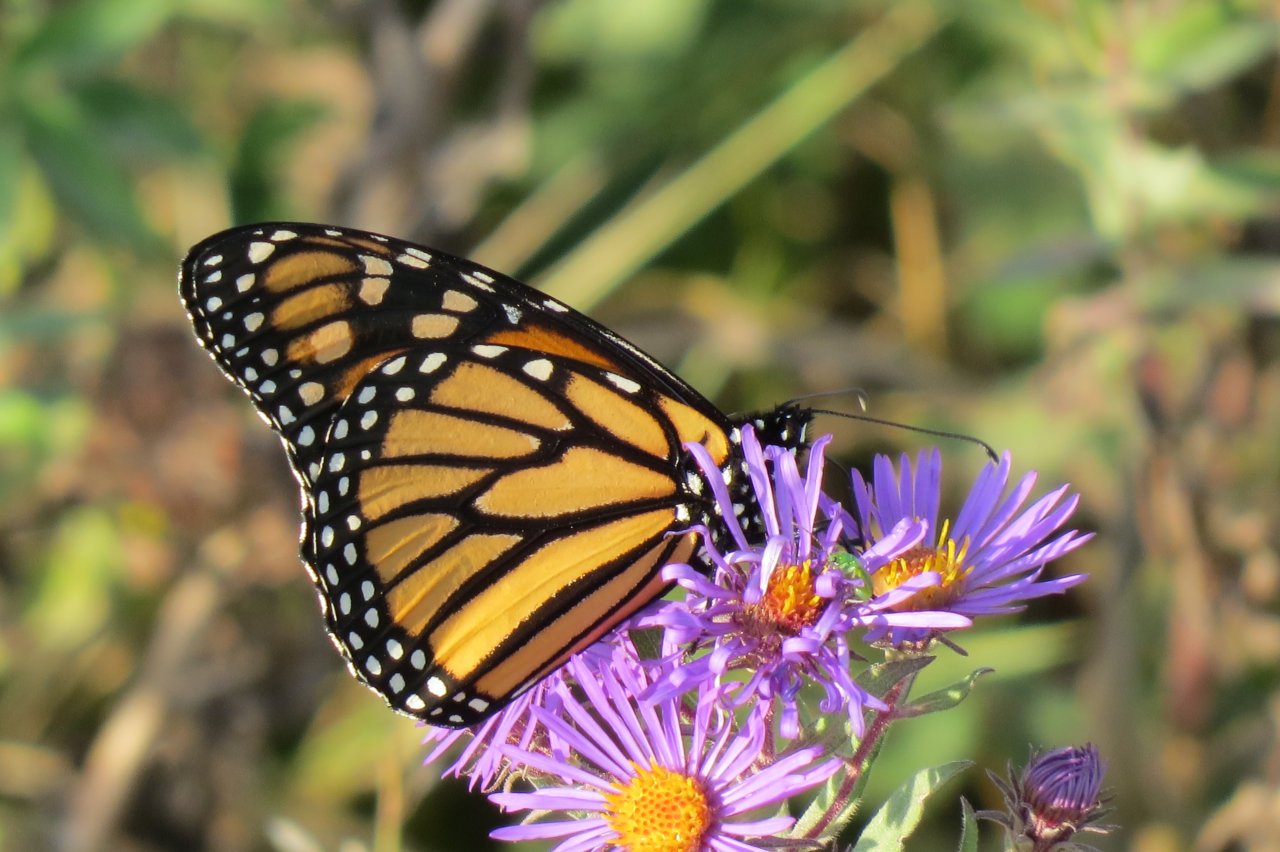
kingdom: Animalia
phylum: Arthropoda
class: Insecta
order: Lepidoptera
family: Nymphalidae
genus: Danaus
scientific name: Danaus plexippus
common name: Monarch
